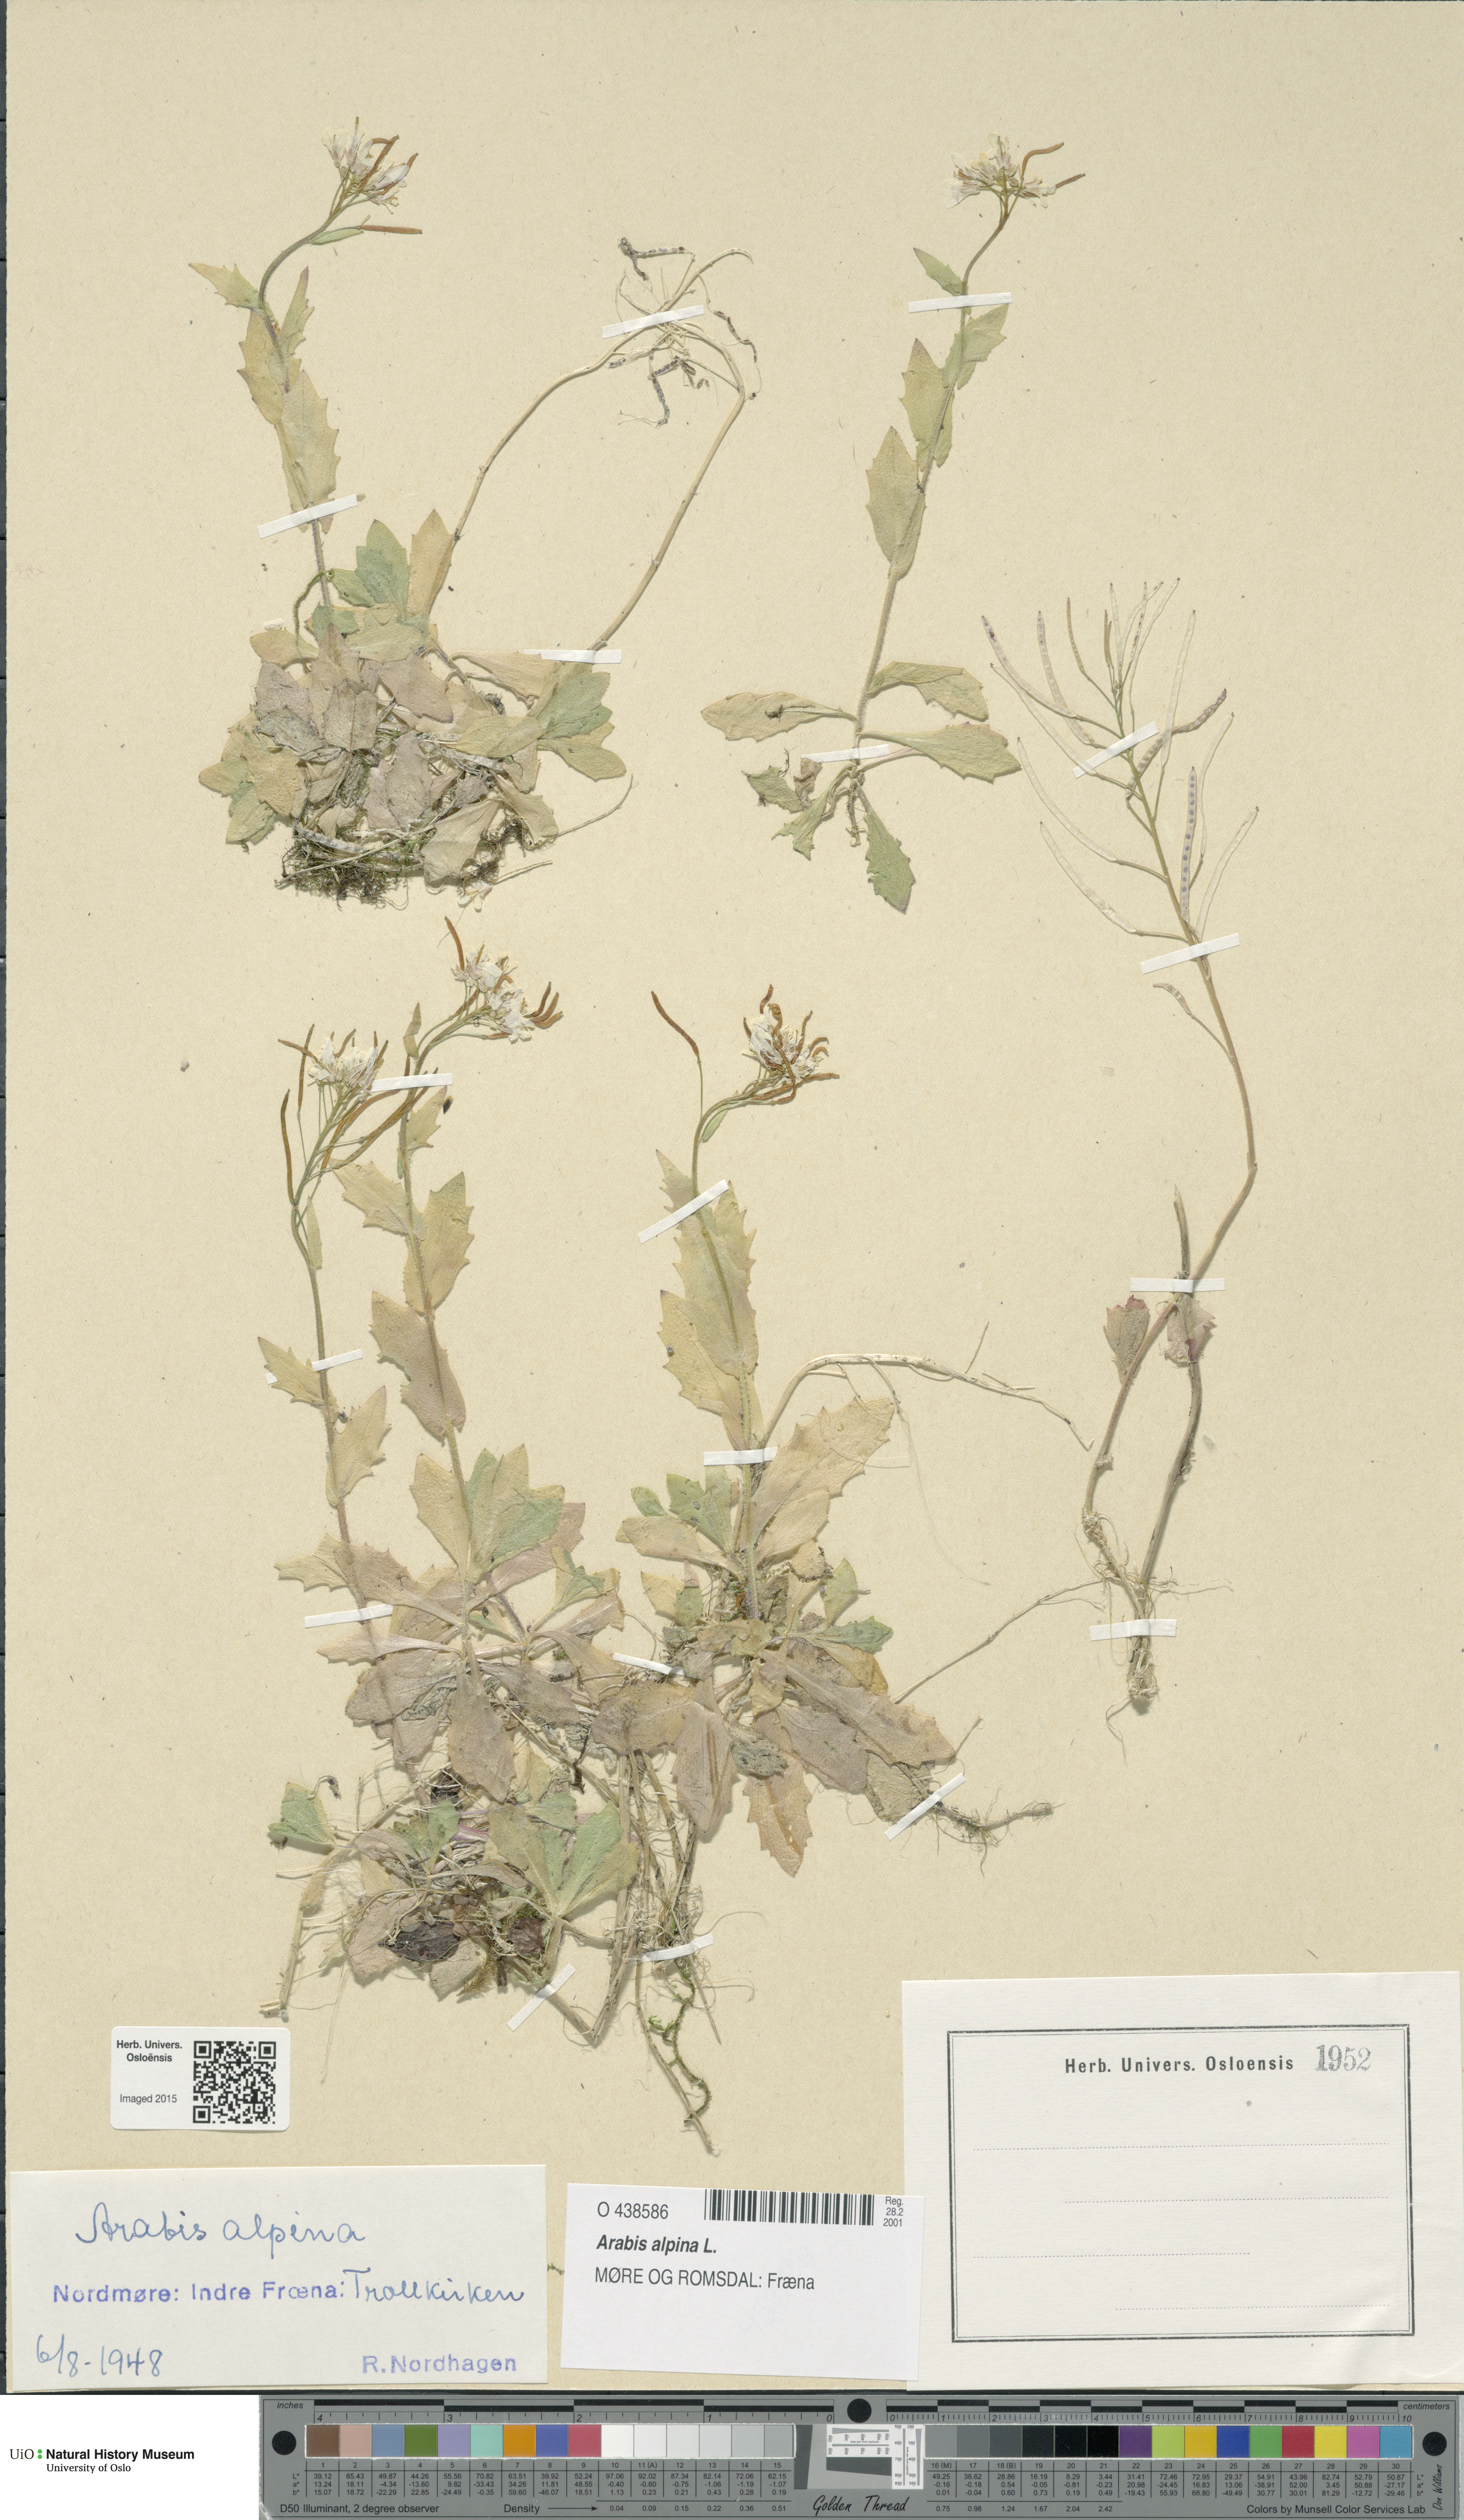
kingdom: Plantae
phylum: Tracheophyta
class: Magnoliopsida
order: Brassicales
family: Brassicaceae
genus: Arabis
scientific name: Arabis alpina
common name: Alpine rock-cress
